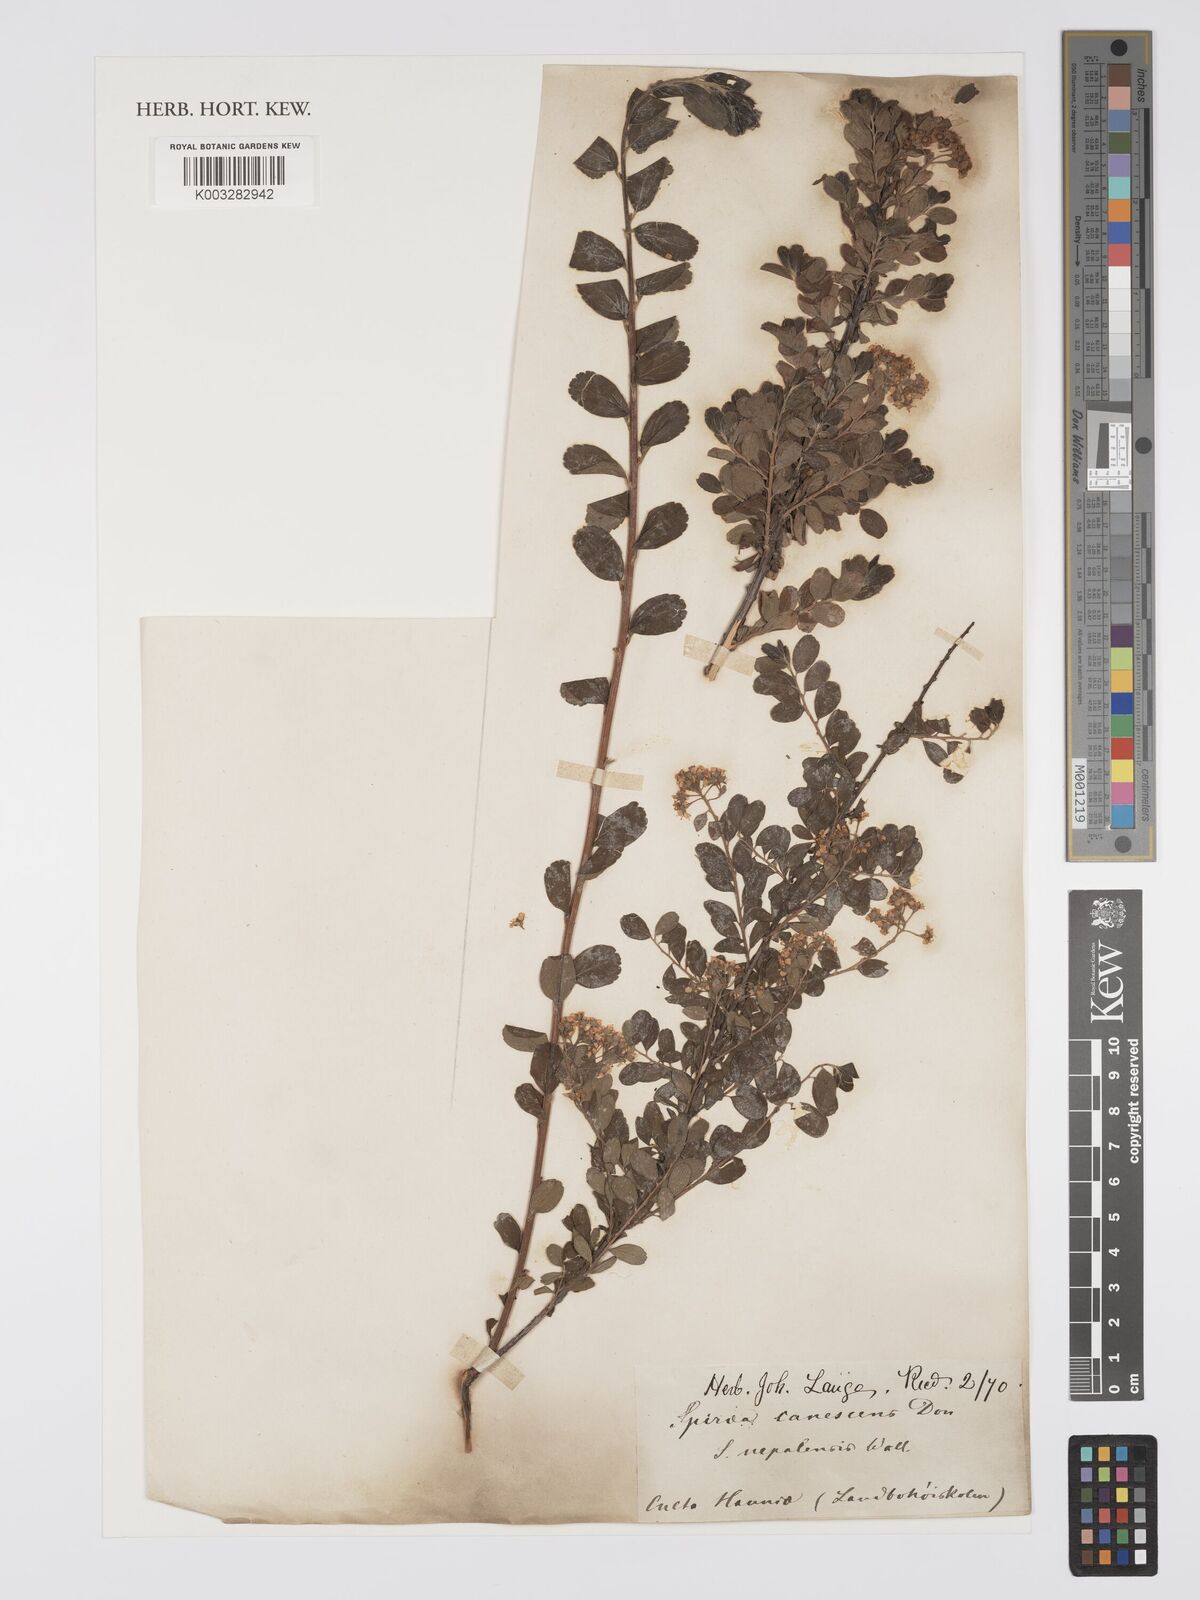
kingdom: Plantae
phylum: Tracheophyta
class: Magnoliopsida
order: Rosales
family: Rosaceae
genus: Spiraea
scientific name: Spiraea
